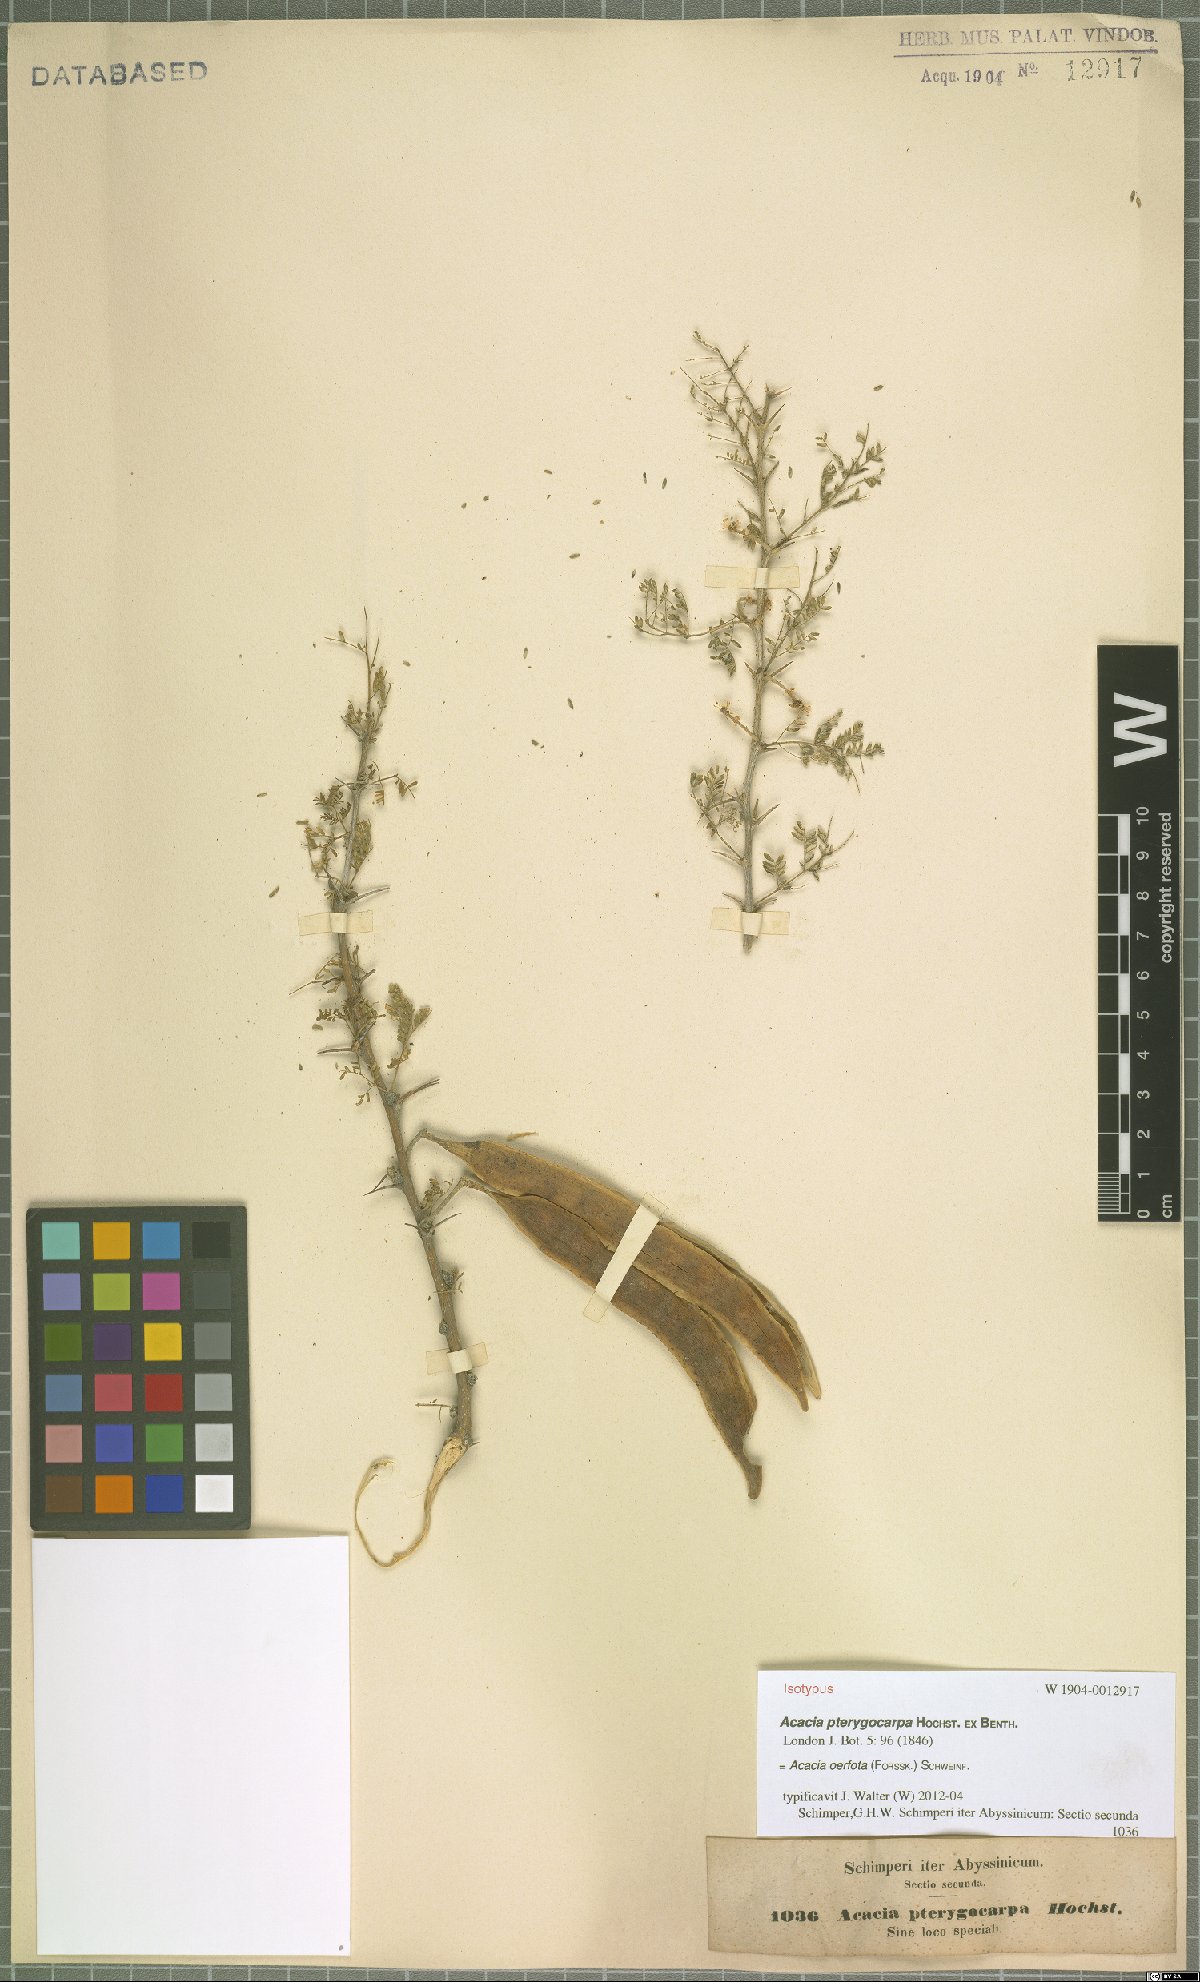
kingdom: Plantae
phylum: Tracheophyta
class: Magnoliopsida
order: Fabales
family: Fabaceae
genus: Vachellia
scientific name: Vachellia oerfota
